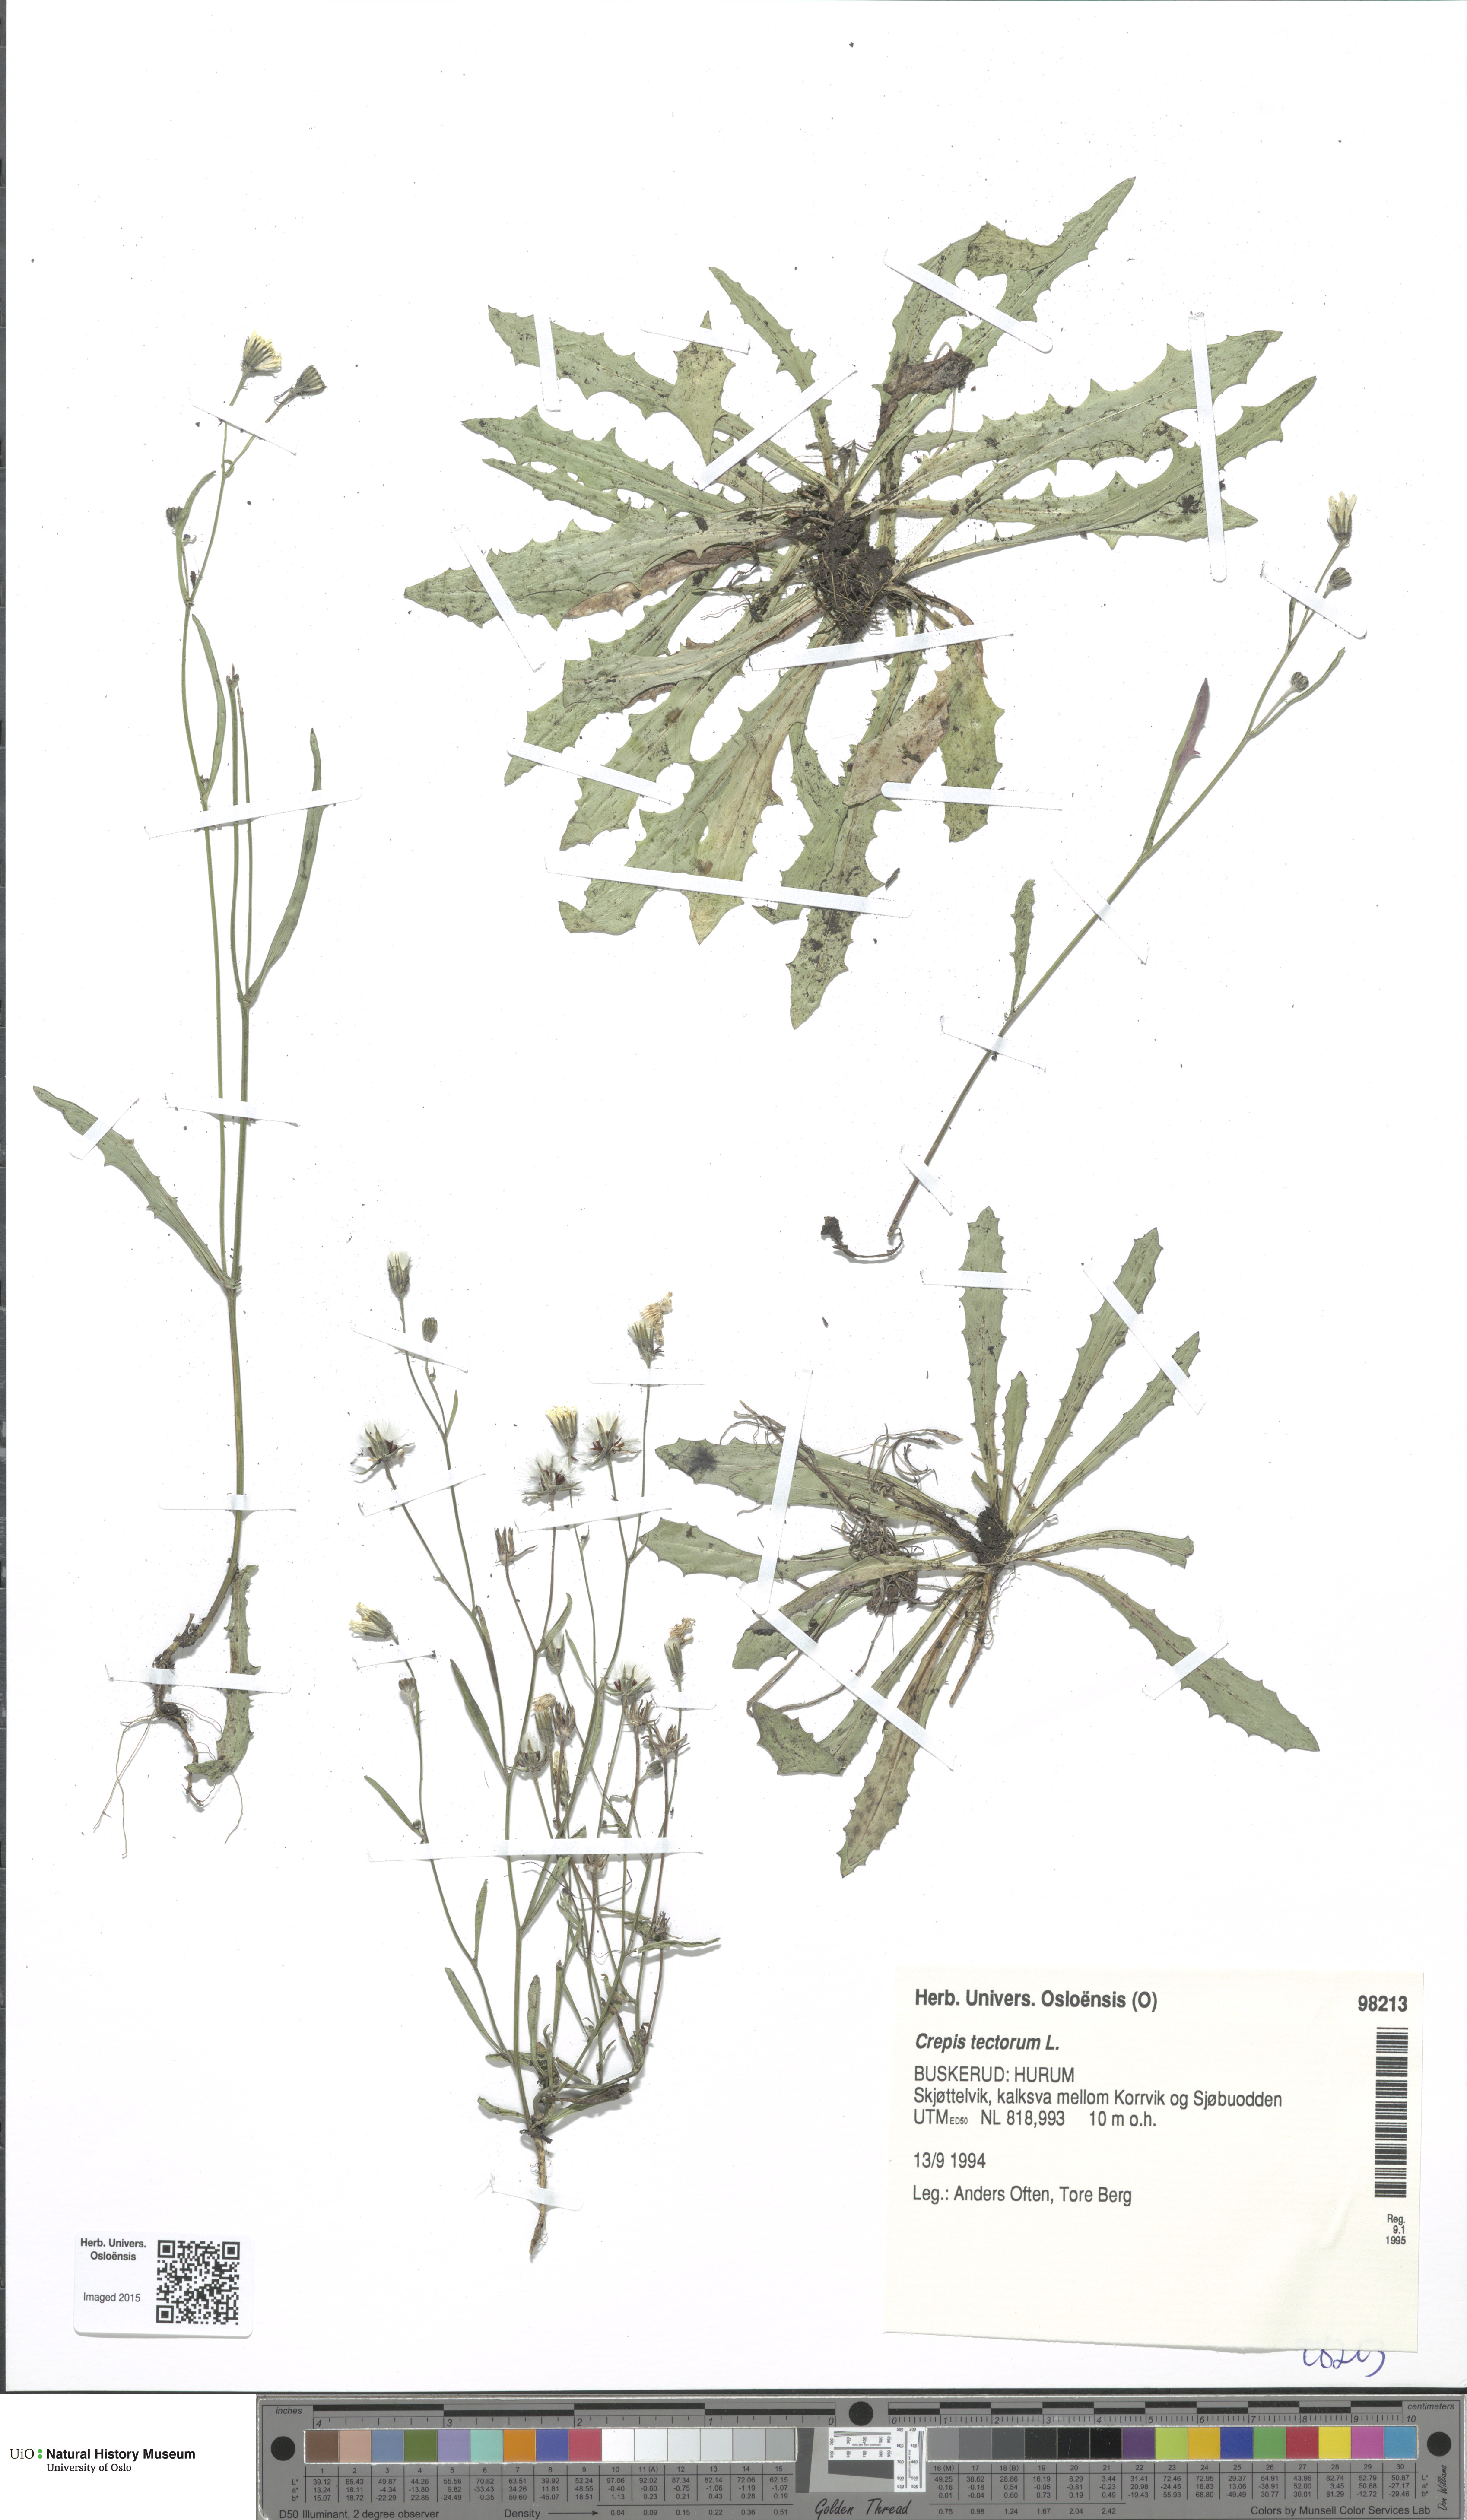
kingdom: Plantae
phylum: Tracheophyta
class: Magnoliopsida
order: Asterales
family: Asteraceae
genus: Crepis
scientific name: Crepis tectorum
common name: Narrow-leaved hawk's-beard
